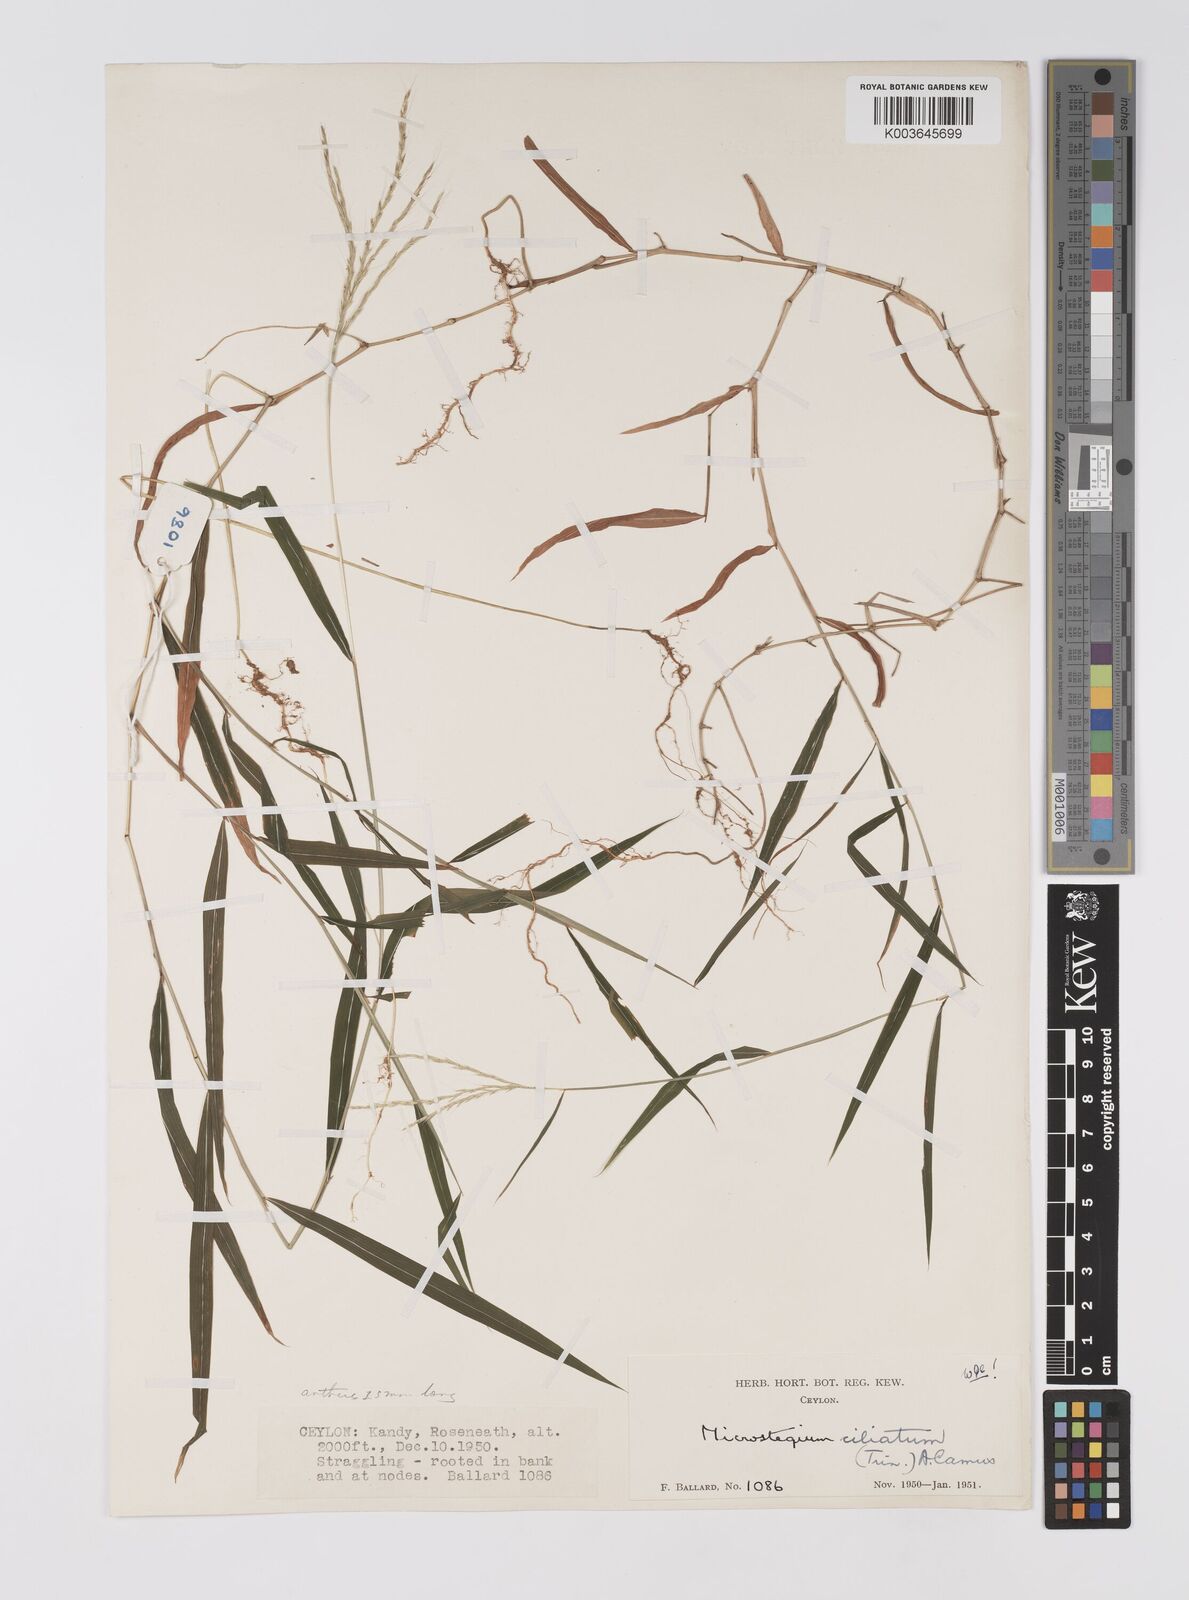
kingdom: Plantae
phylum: Tracheophyta
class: Liliopsida
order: Poales
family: Poaceae
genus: Microstegium
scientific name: Microstegium fasciculatum
